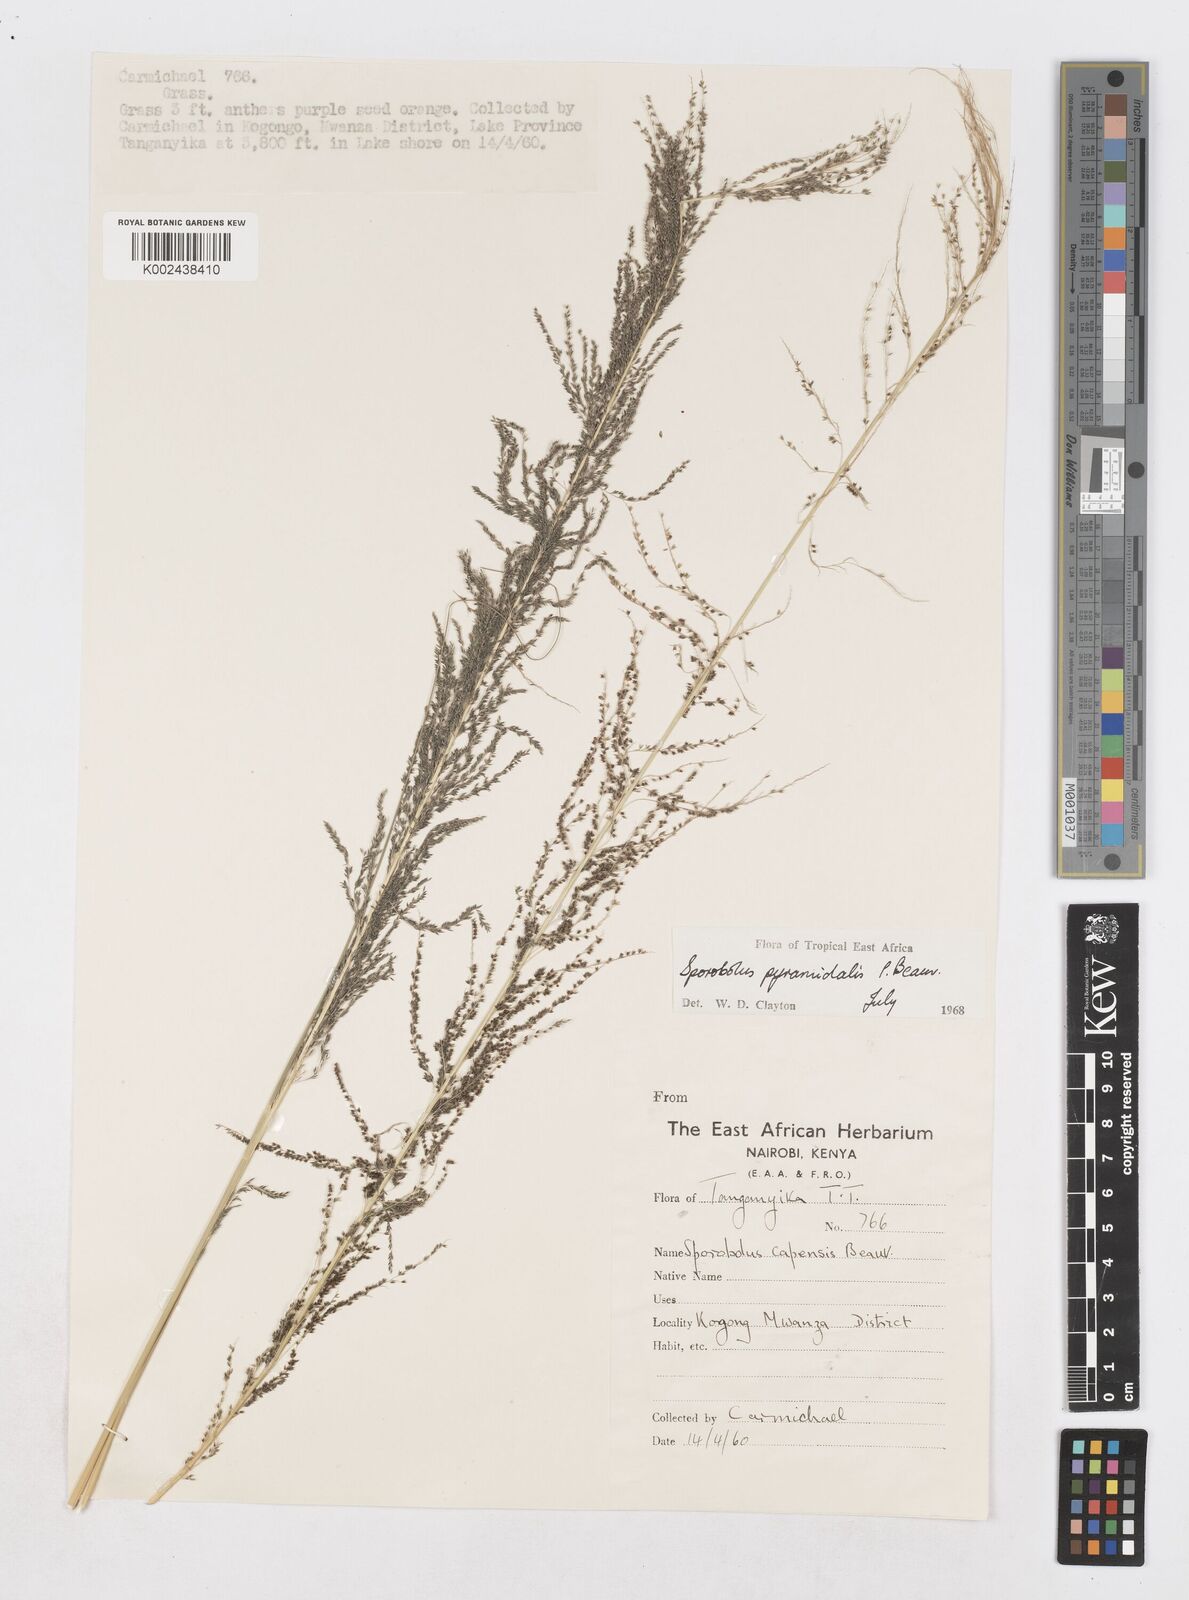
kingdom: Plantae
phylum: Tracheophyta
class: Liliopsida
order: Poales
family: Poaceae
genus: Sporobolus
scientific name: Sporobolus pyramidalis
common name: West indian dropseed
